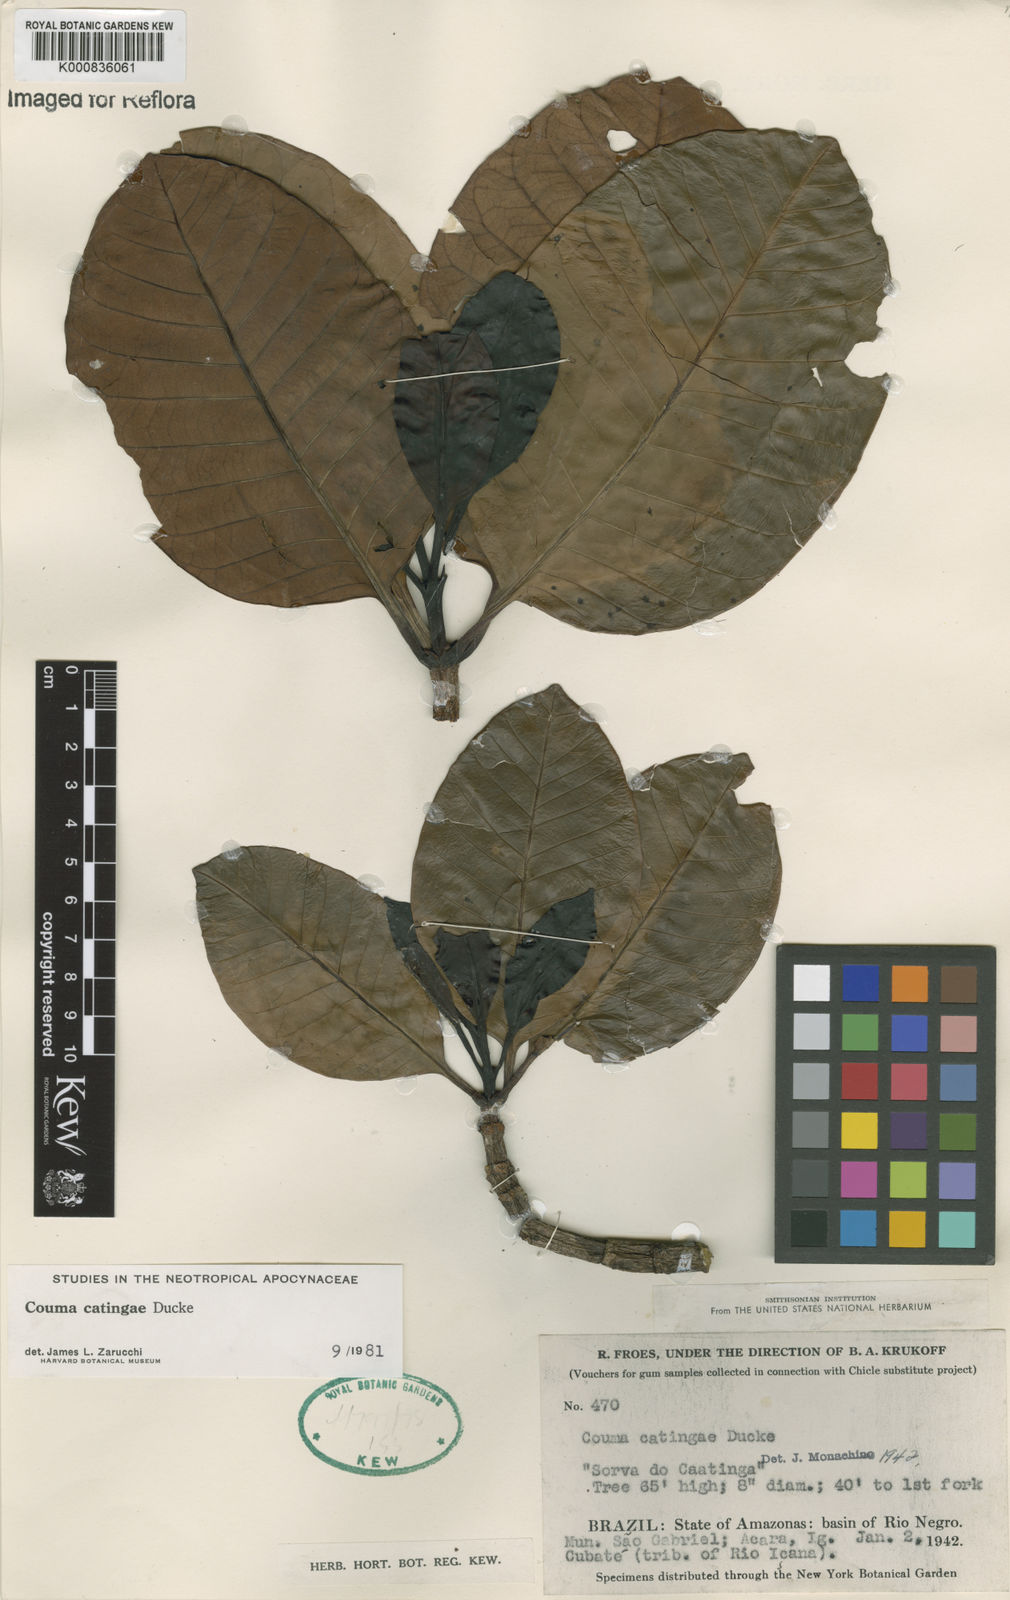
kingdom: Plantae
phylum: Tracheophyta
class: Magnoliopsida
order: Gentianales
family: Apocynaceae
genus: Couma
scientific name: Couma catingae
